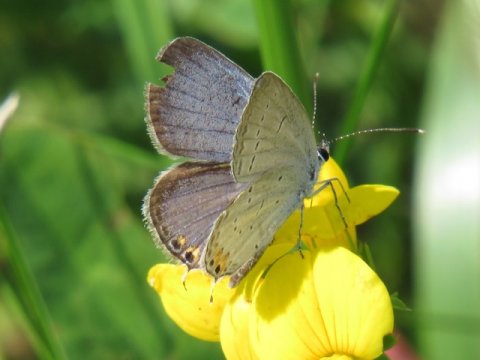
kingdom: Animalia
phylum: Arthropoda
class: Insecta
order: Lepidoptera
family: Lycaenidae
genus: Elkalyce
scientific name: Elkalyce comyntas
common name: Eastern Tailed-Blue
